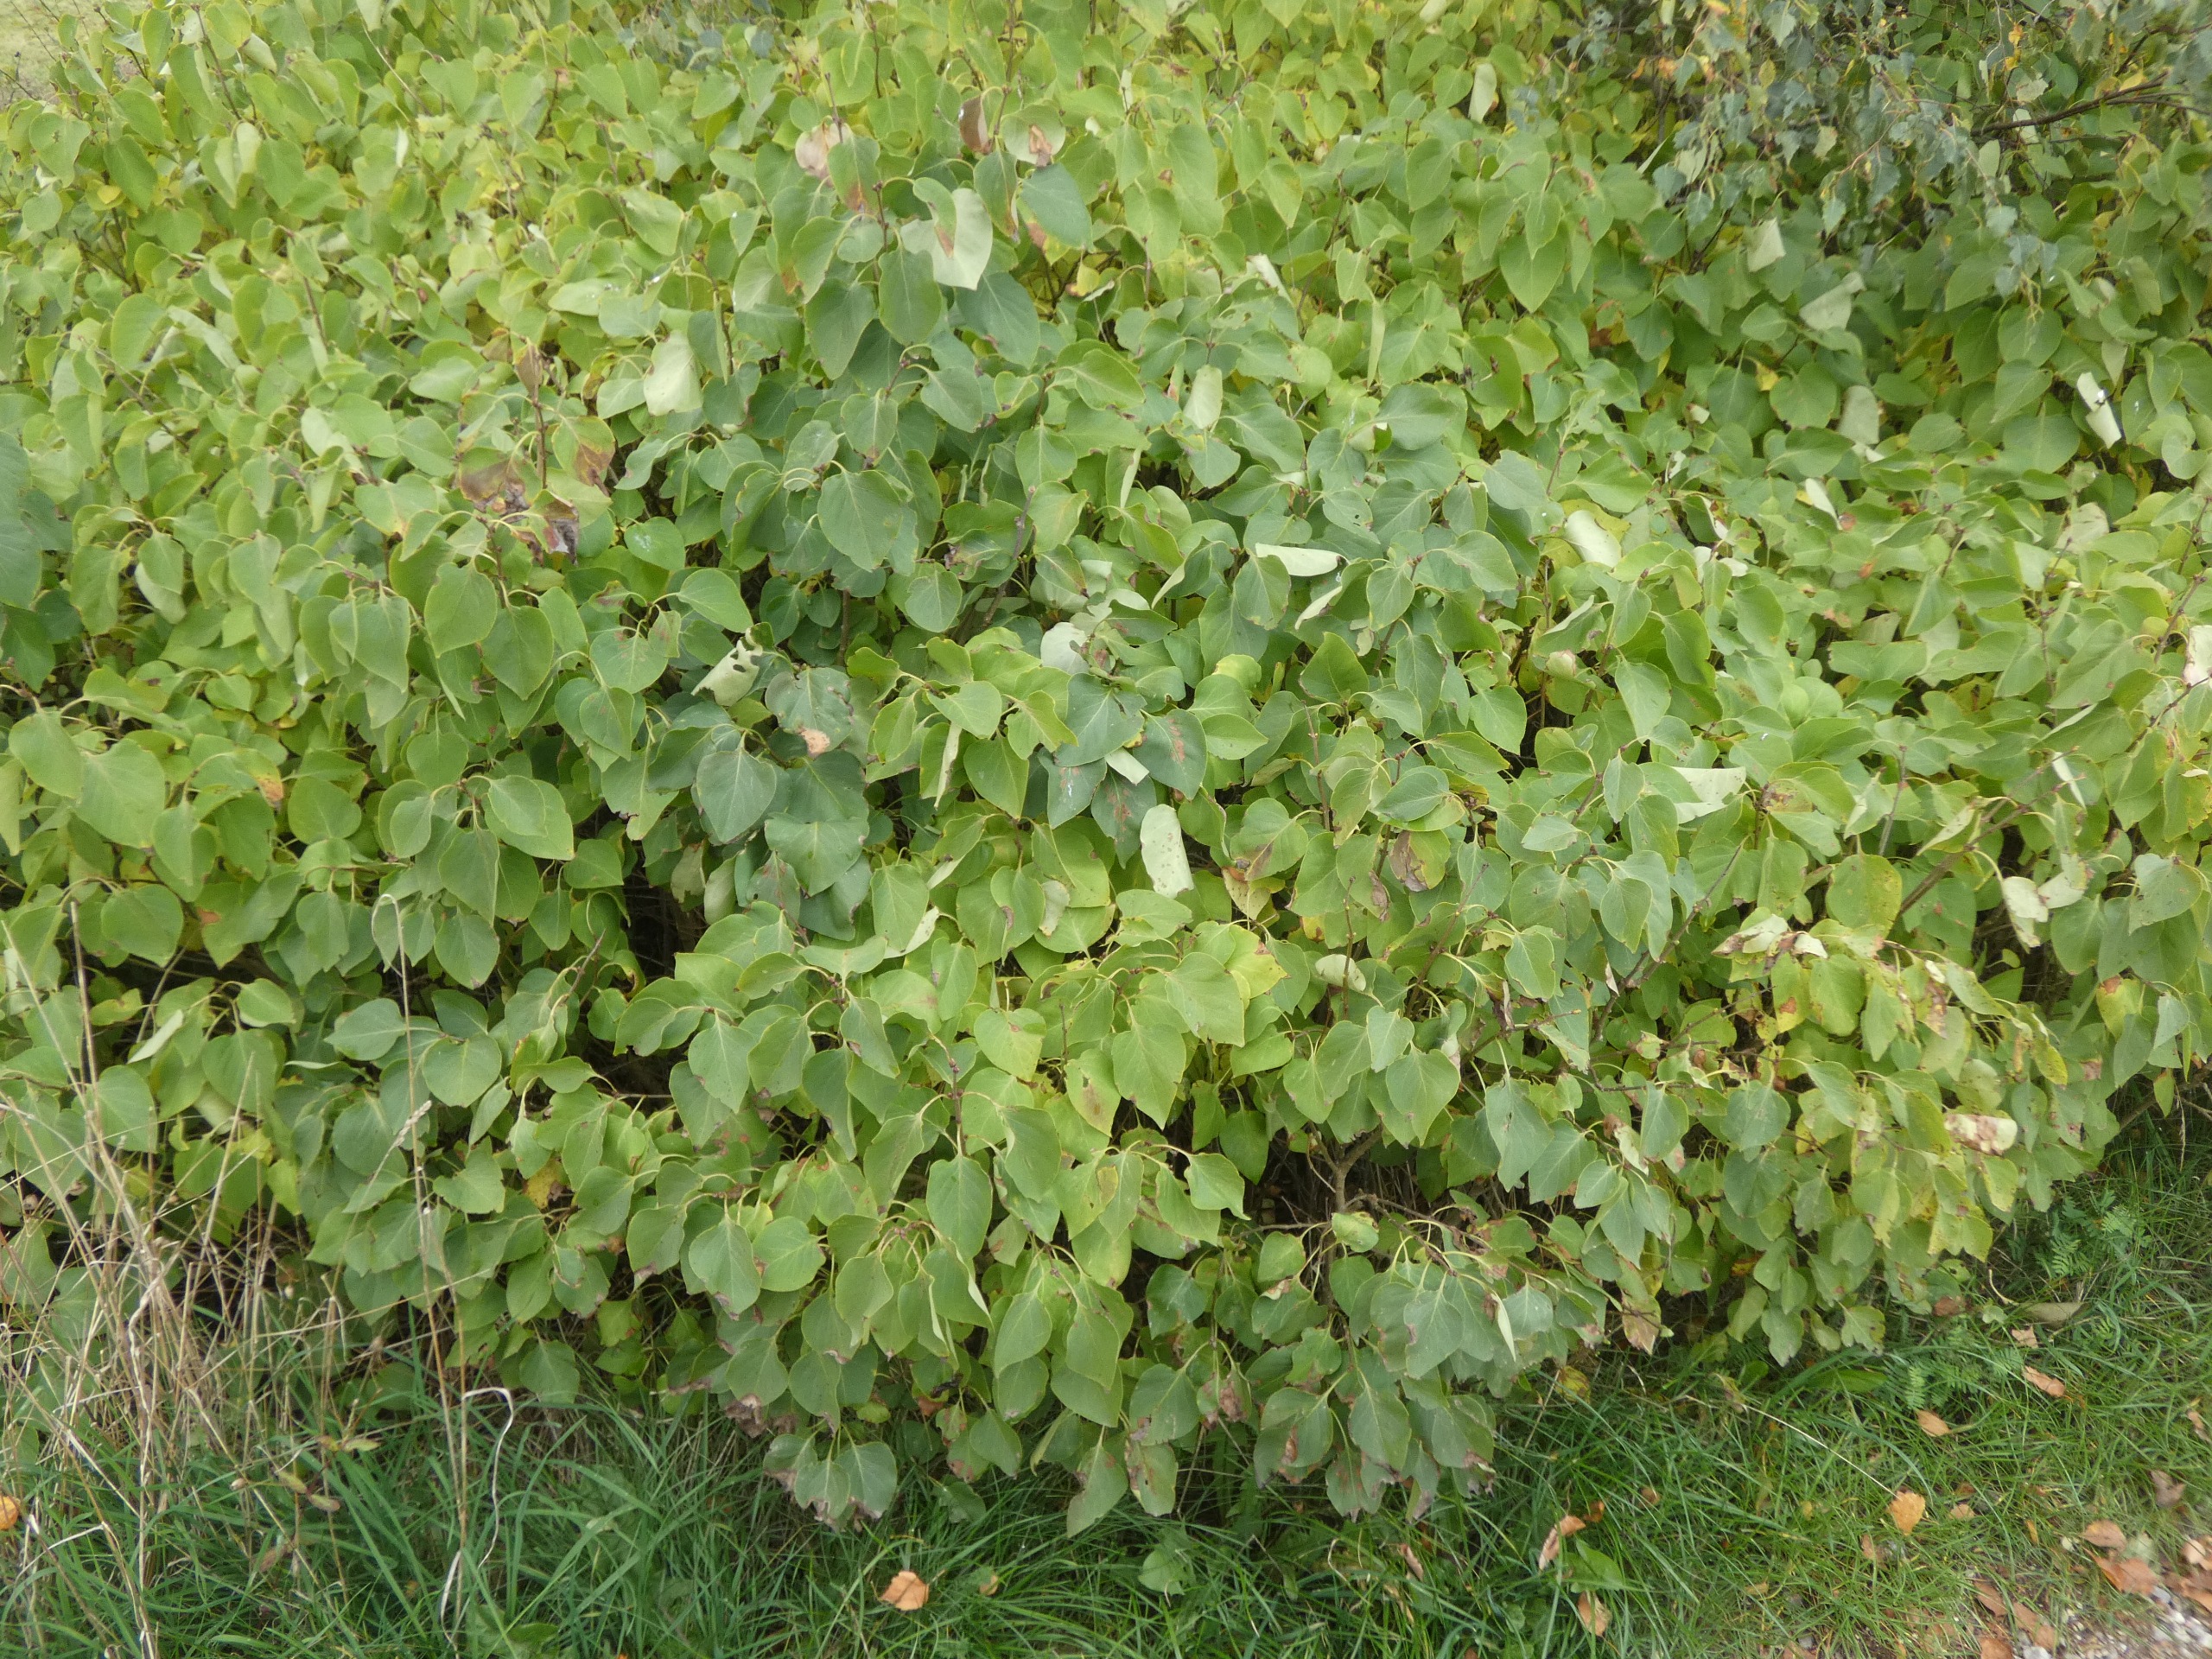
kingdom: Plantae
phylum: Tracheophyta
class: Magnoliopsida
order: Lamiales
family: Oleaceae
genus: Syringa
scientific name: Syringa vulgaris
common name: Syren
